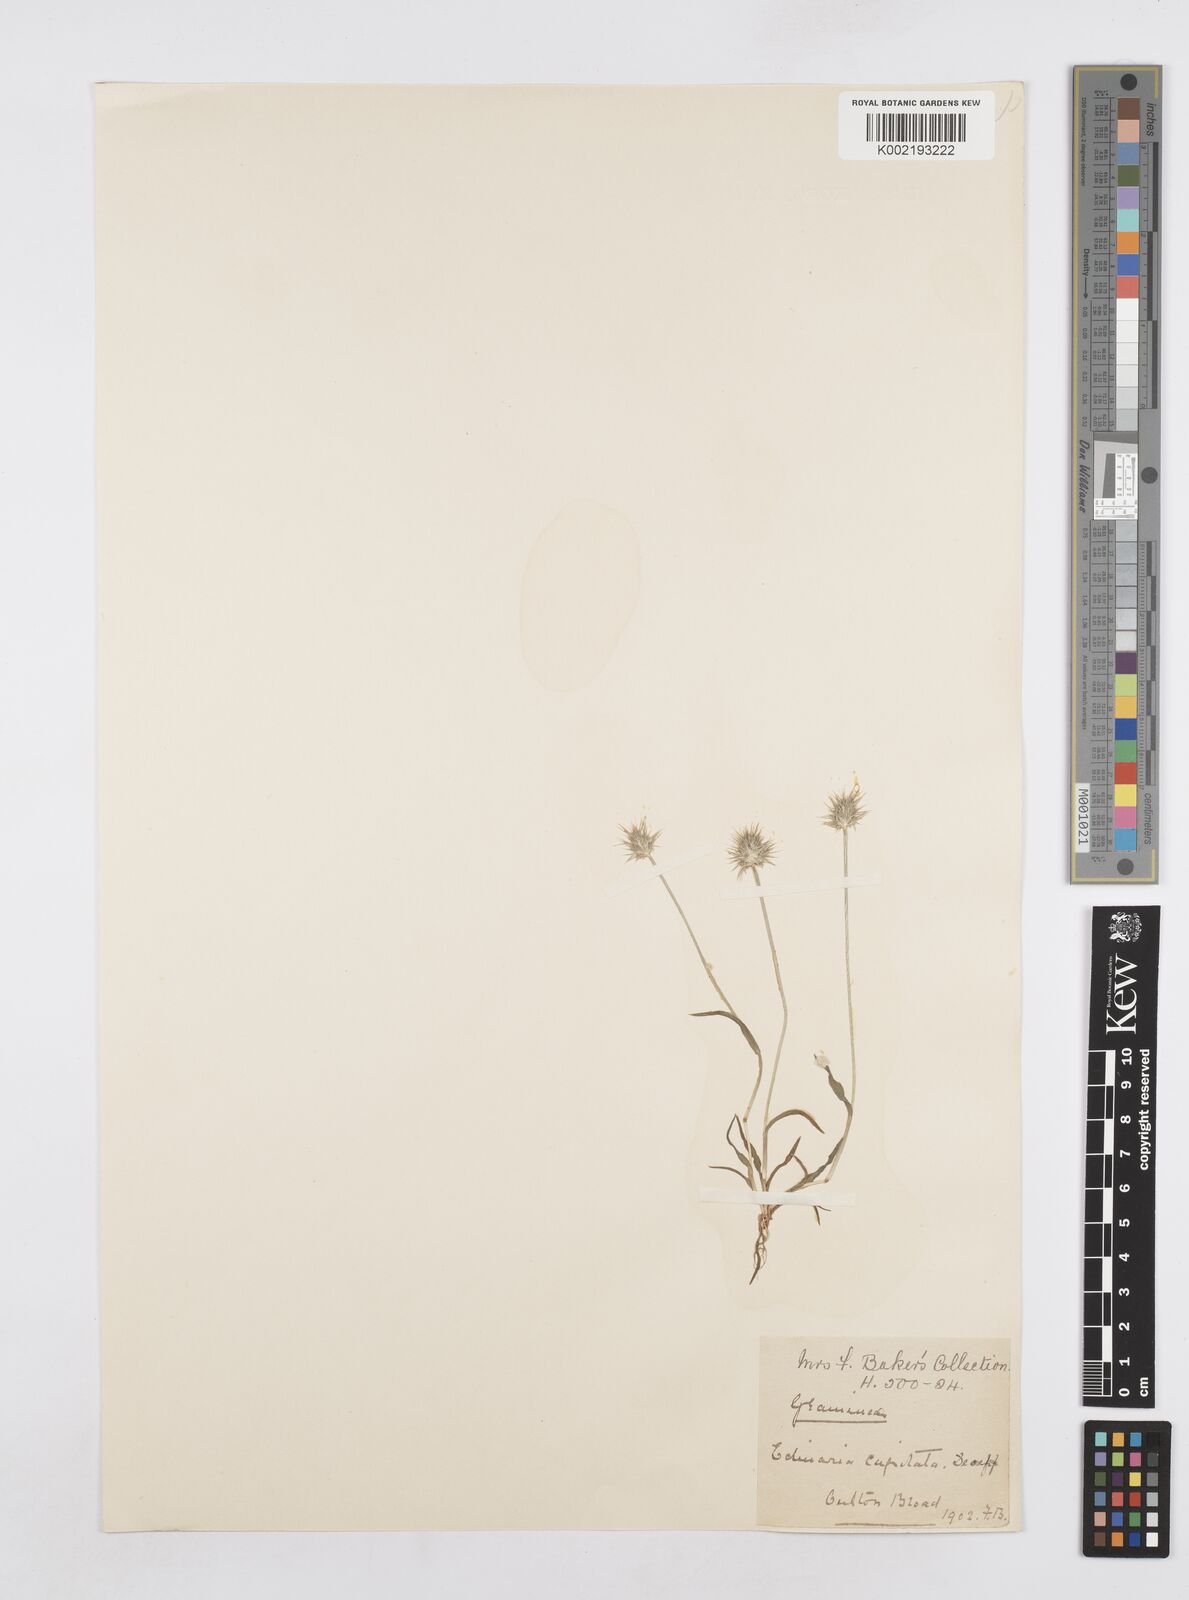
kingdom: Plantae
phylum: Tracheophyta
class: Liliopsida
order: Poales
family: Poaceae
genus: Echinaria
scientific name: Echinaria capitata
